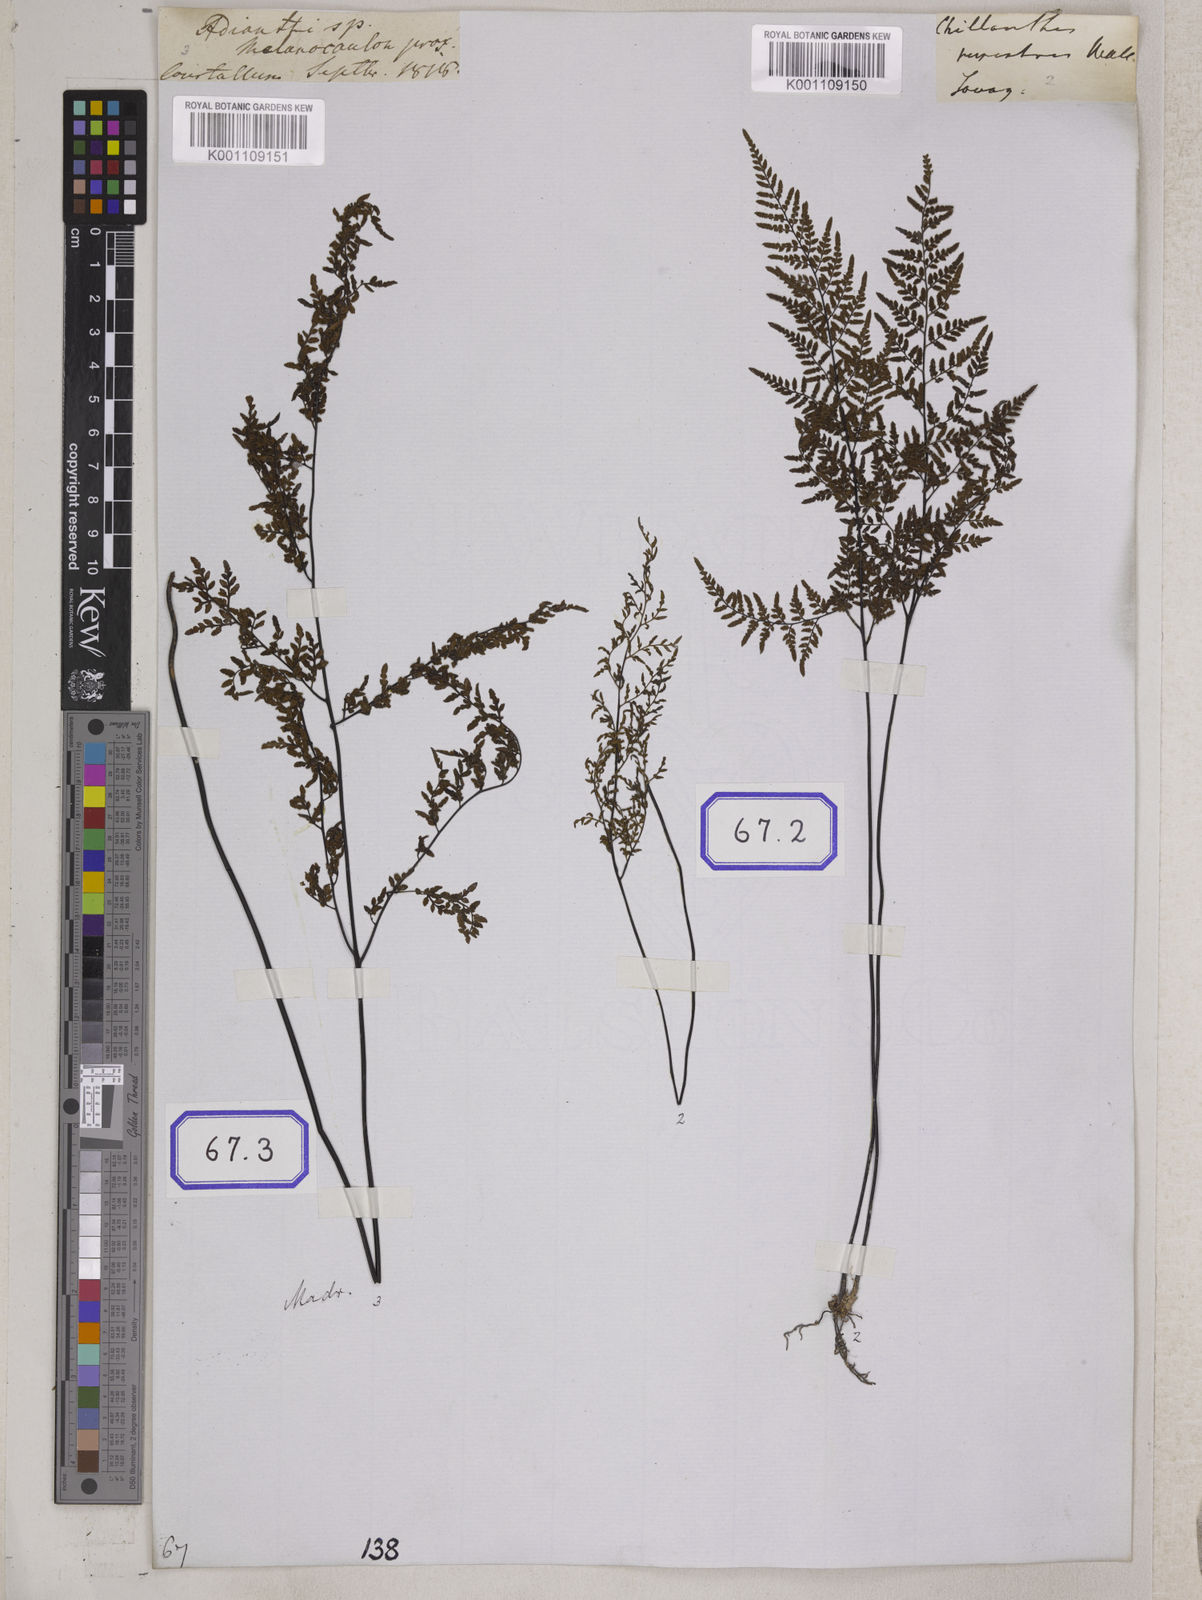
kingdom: Plantae
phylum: Tracheophyta
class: Polypodiopsida
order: Polypodiales
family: Pteridaceae
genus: Cheilanthes
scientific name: Cheilanthes tenuifolia
